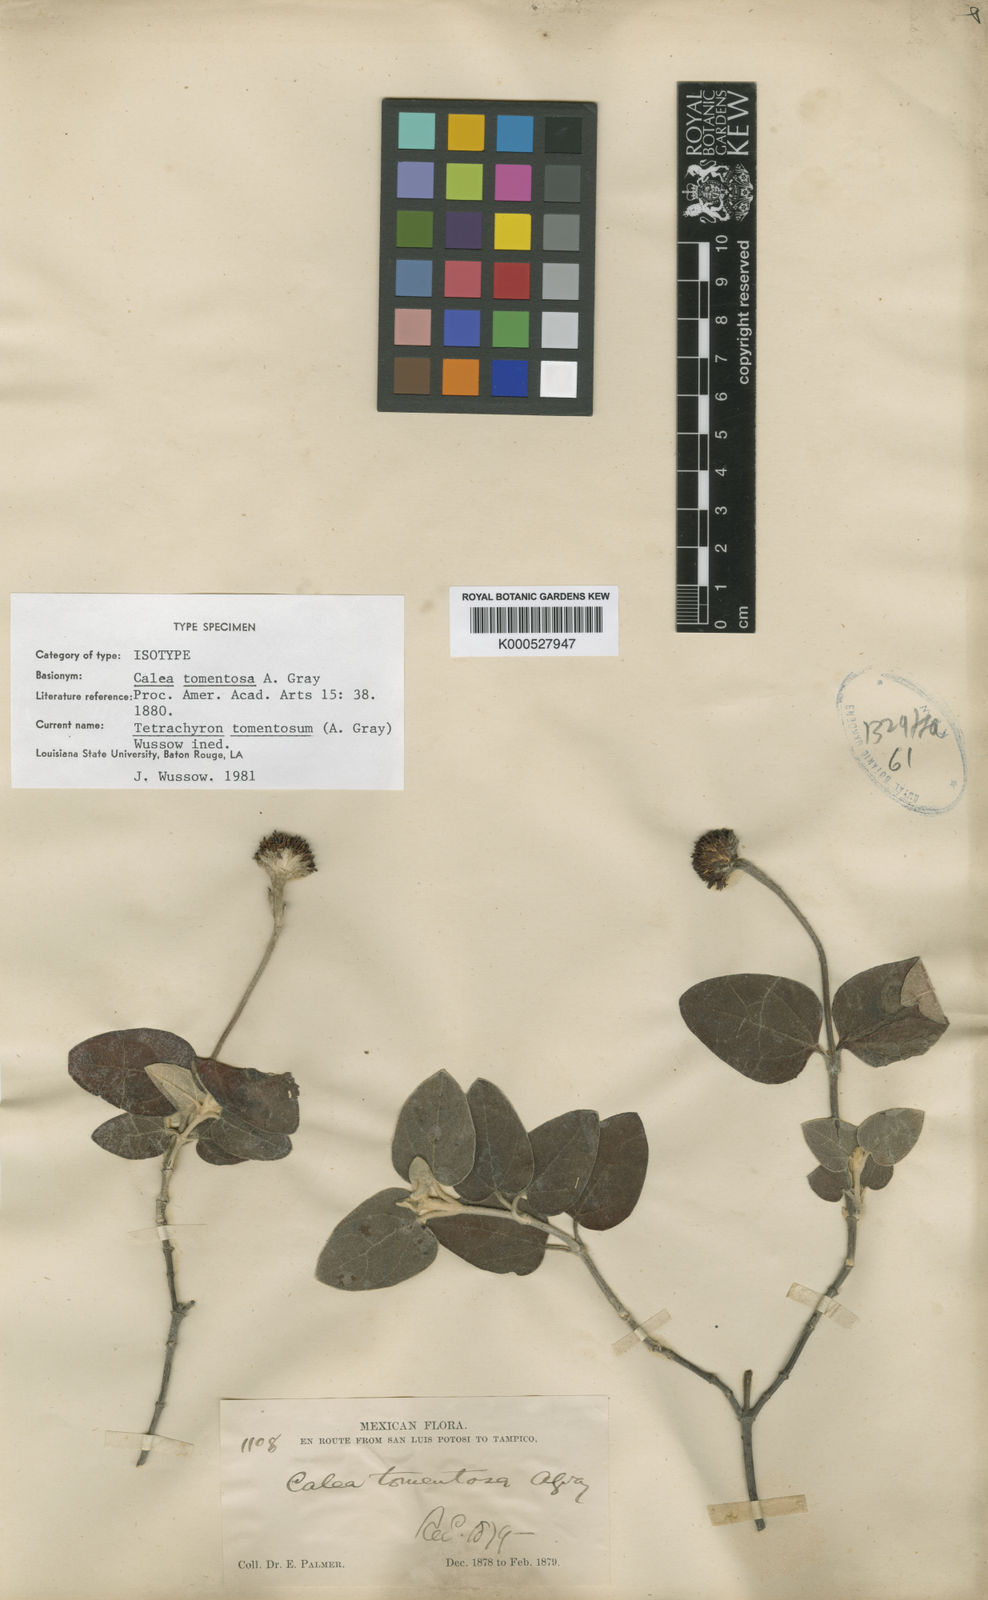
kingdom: Plantae
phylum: Tracheophyta
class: Magnoliopsida
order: Asterales
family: Asteraceae
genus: Tetrachyron
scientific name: Tetrachyron
